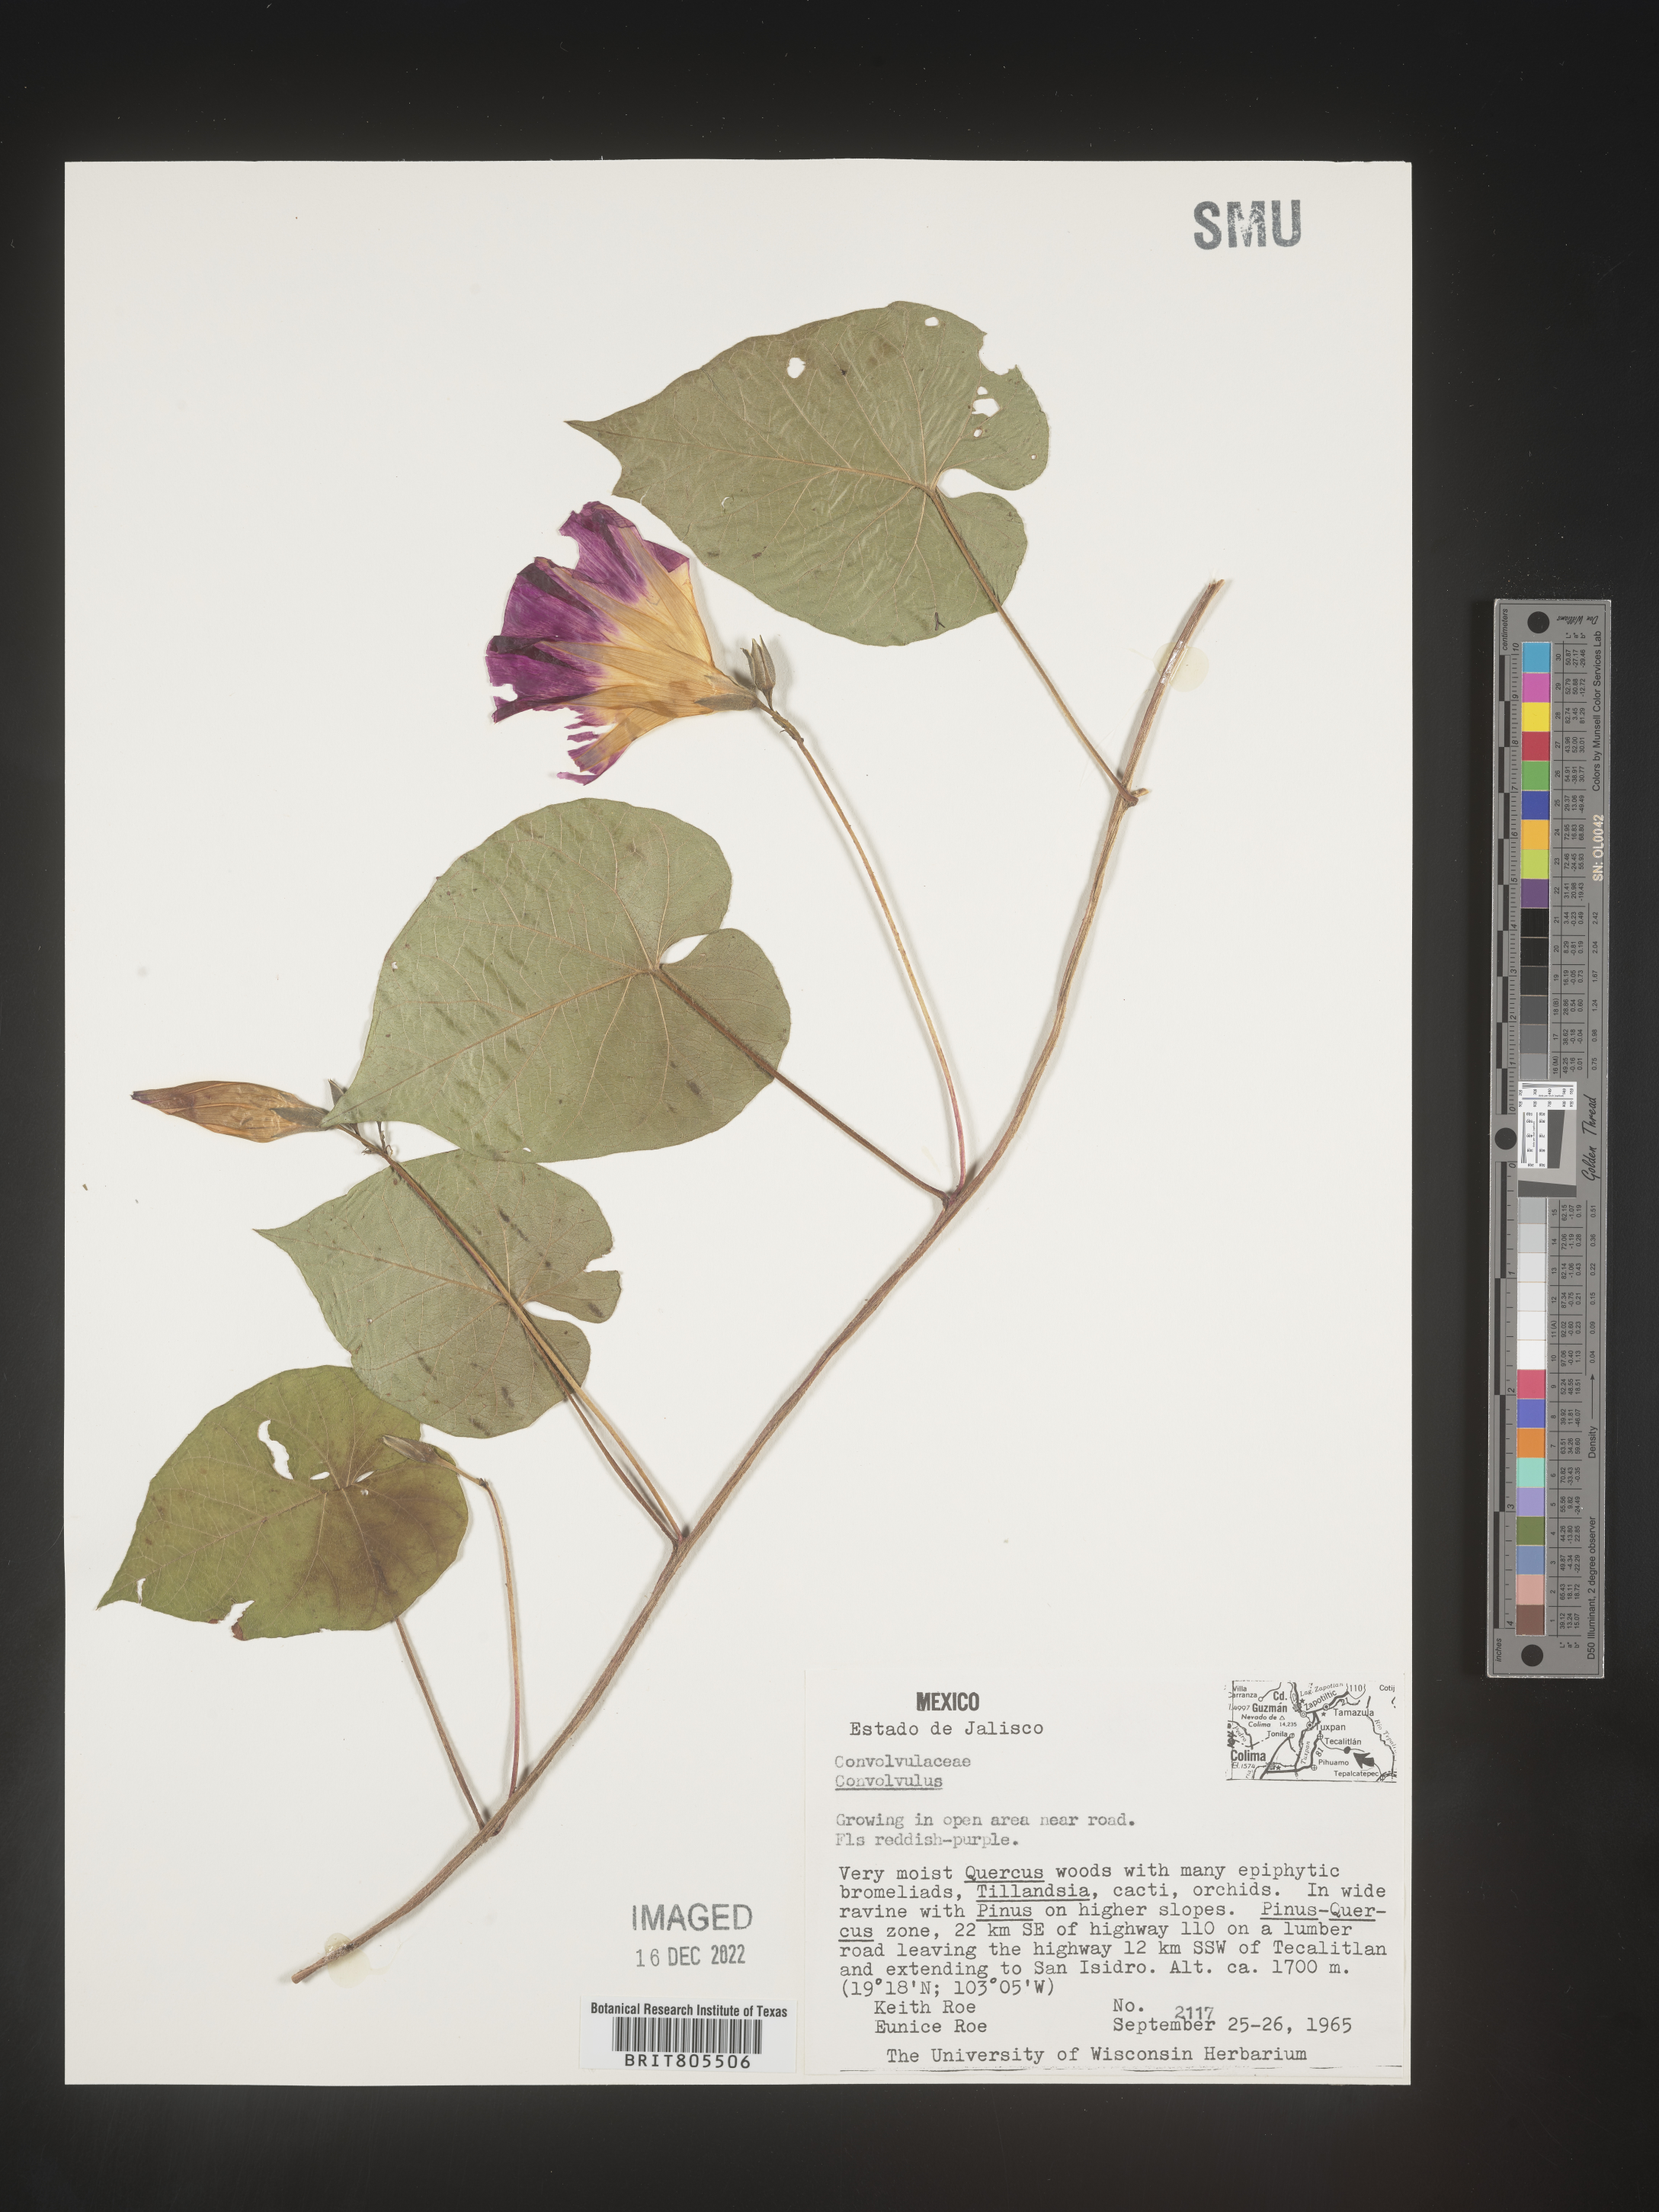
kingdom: Plantae
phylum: Tracheophyta
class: Magnoliopsida
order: Solanales
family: Convolvulaceae
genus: Ipomoea
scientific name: Ipomoea
